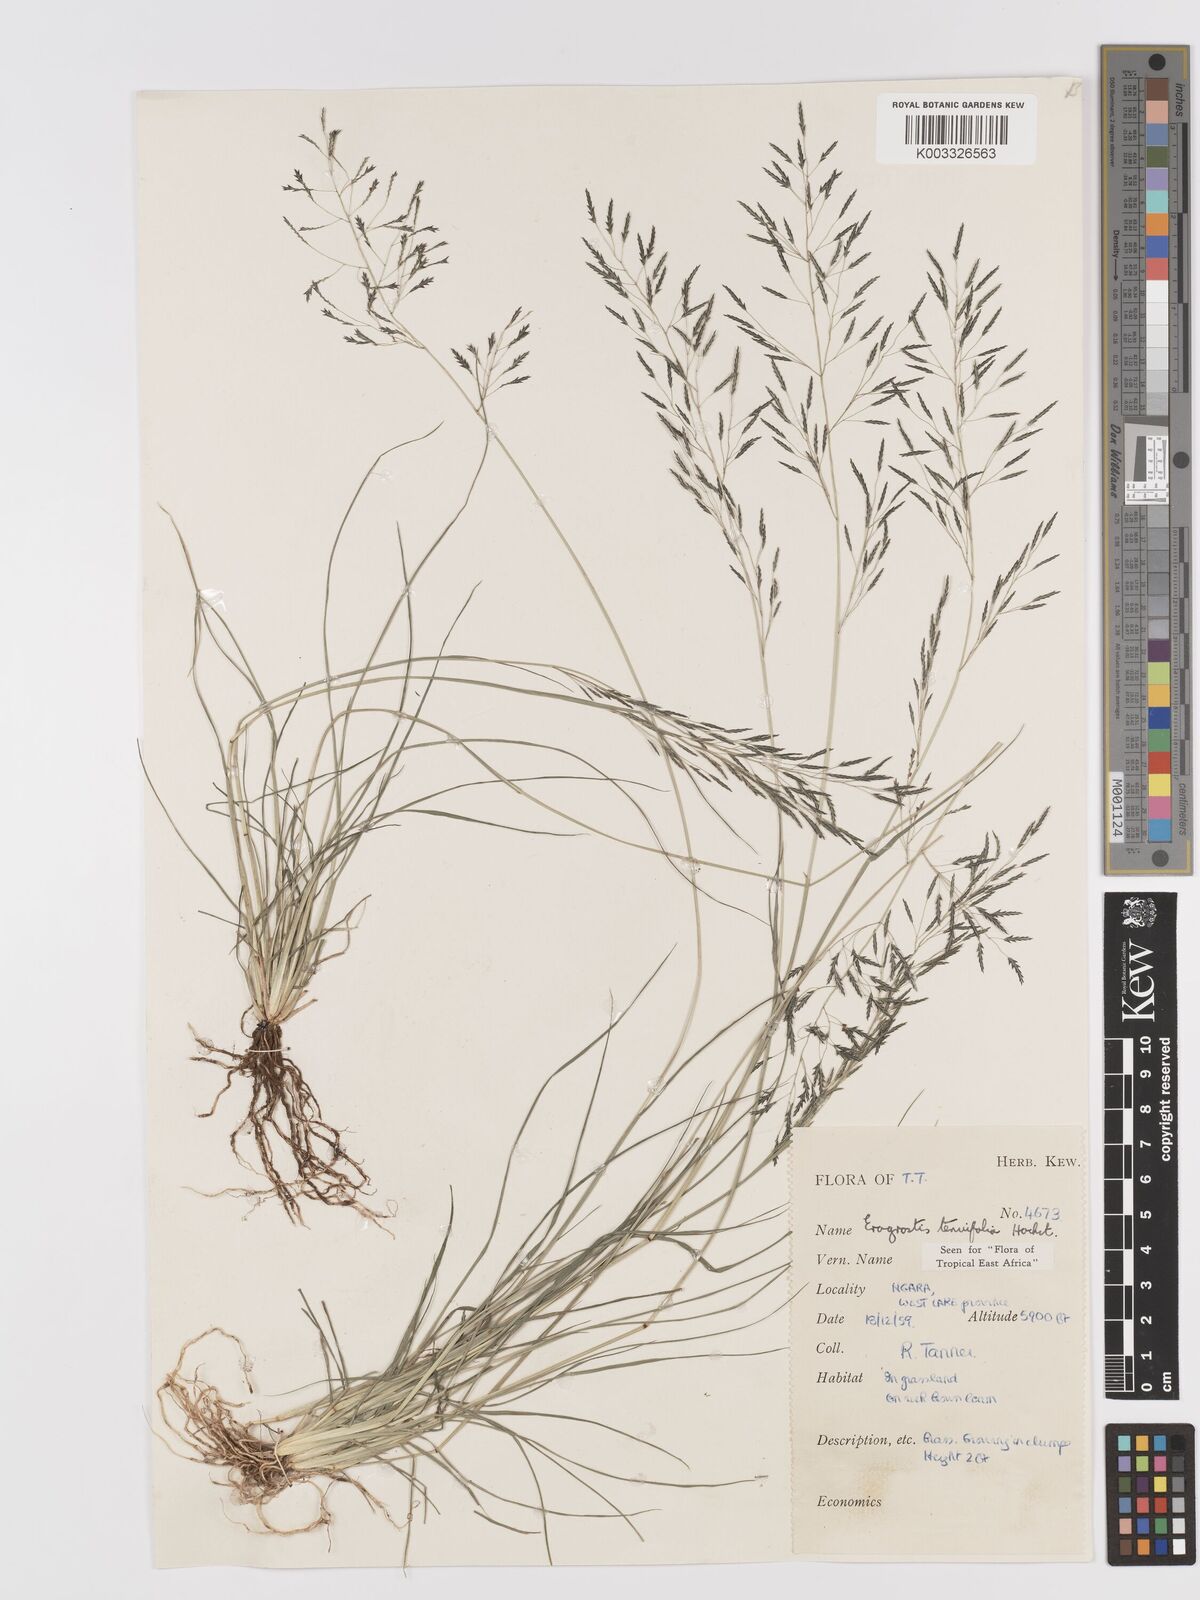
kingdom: Plantae
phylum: Tracheophyta
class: Liliopsida
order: Poales
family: Poaceae
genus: Eragrostis
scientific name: Eragrostis tenuifolia
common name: Elastic grass
